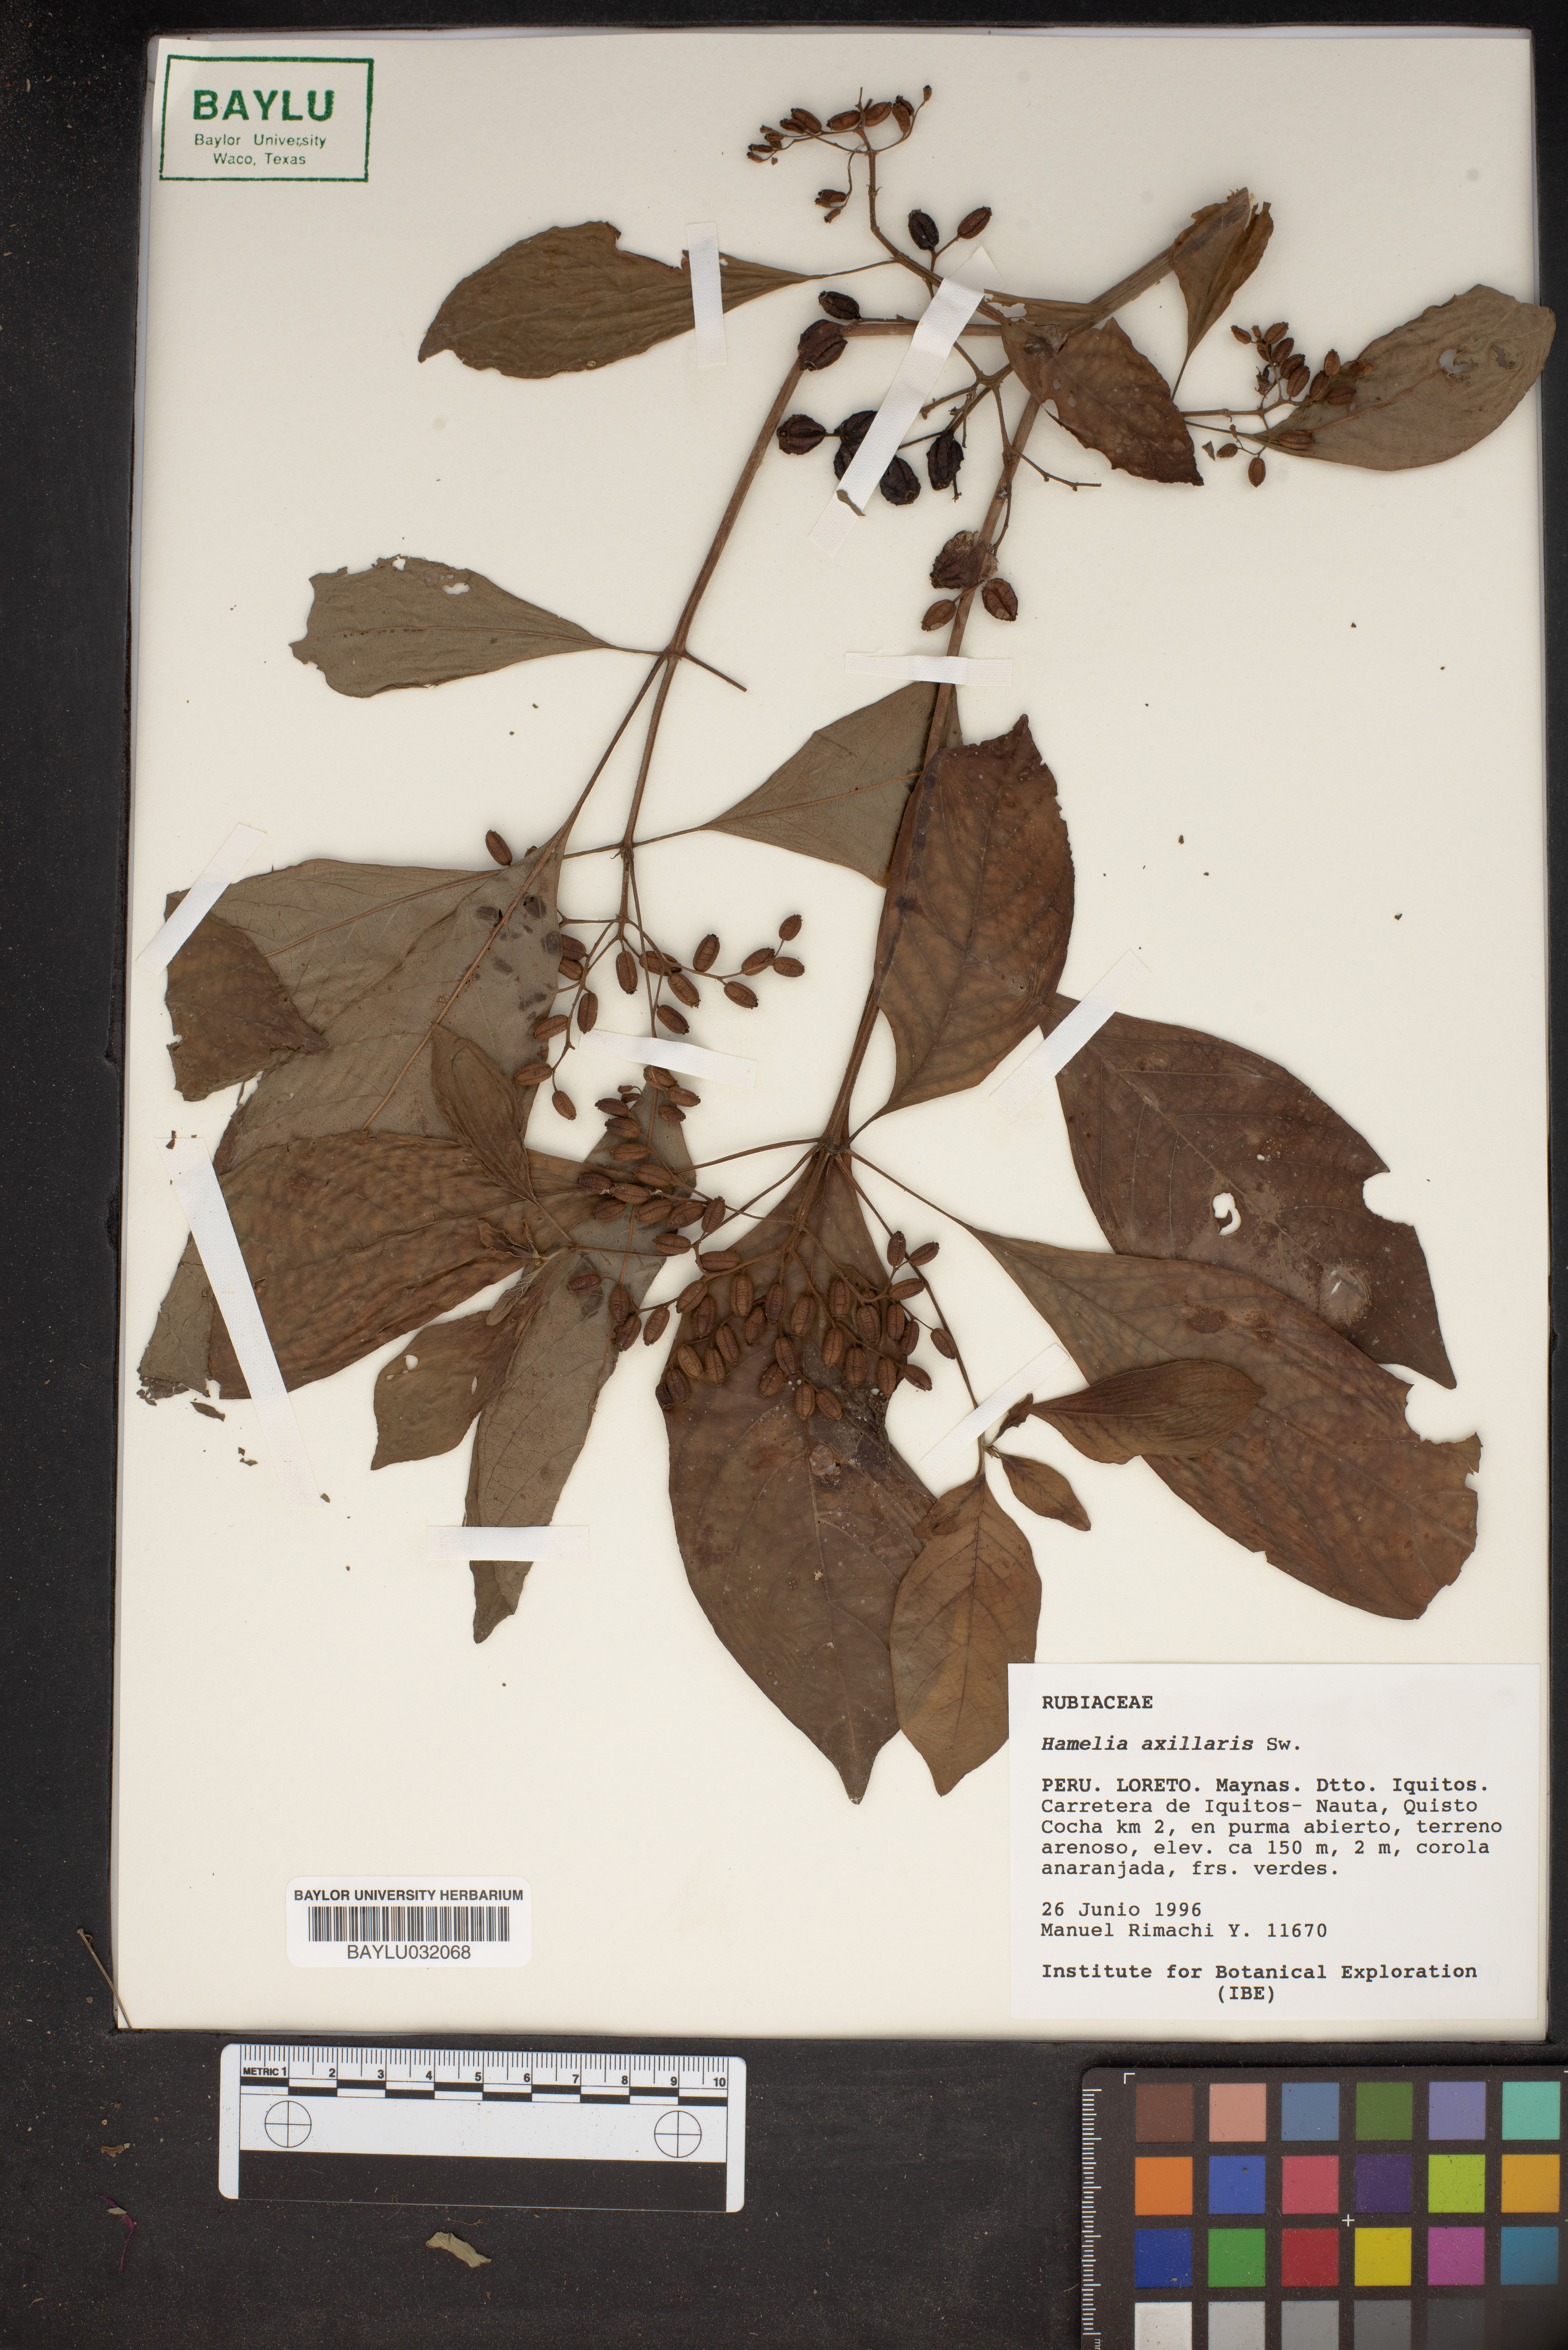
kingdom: Plantae
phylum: Tracheophyta
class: Magnoliopsida
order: Gentianales
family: Rubiaceae
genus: Hamelia
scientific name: Hamelia axillaris
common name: Balsamillo
